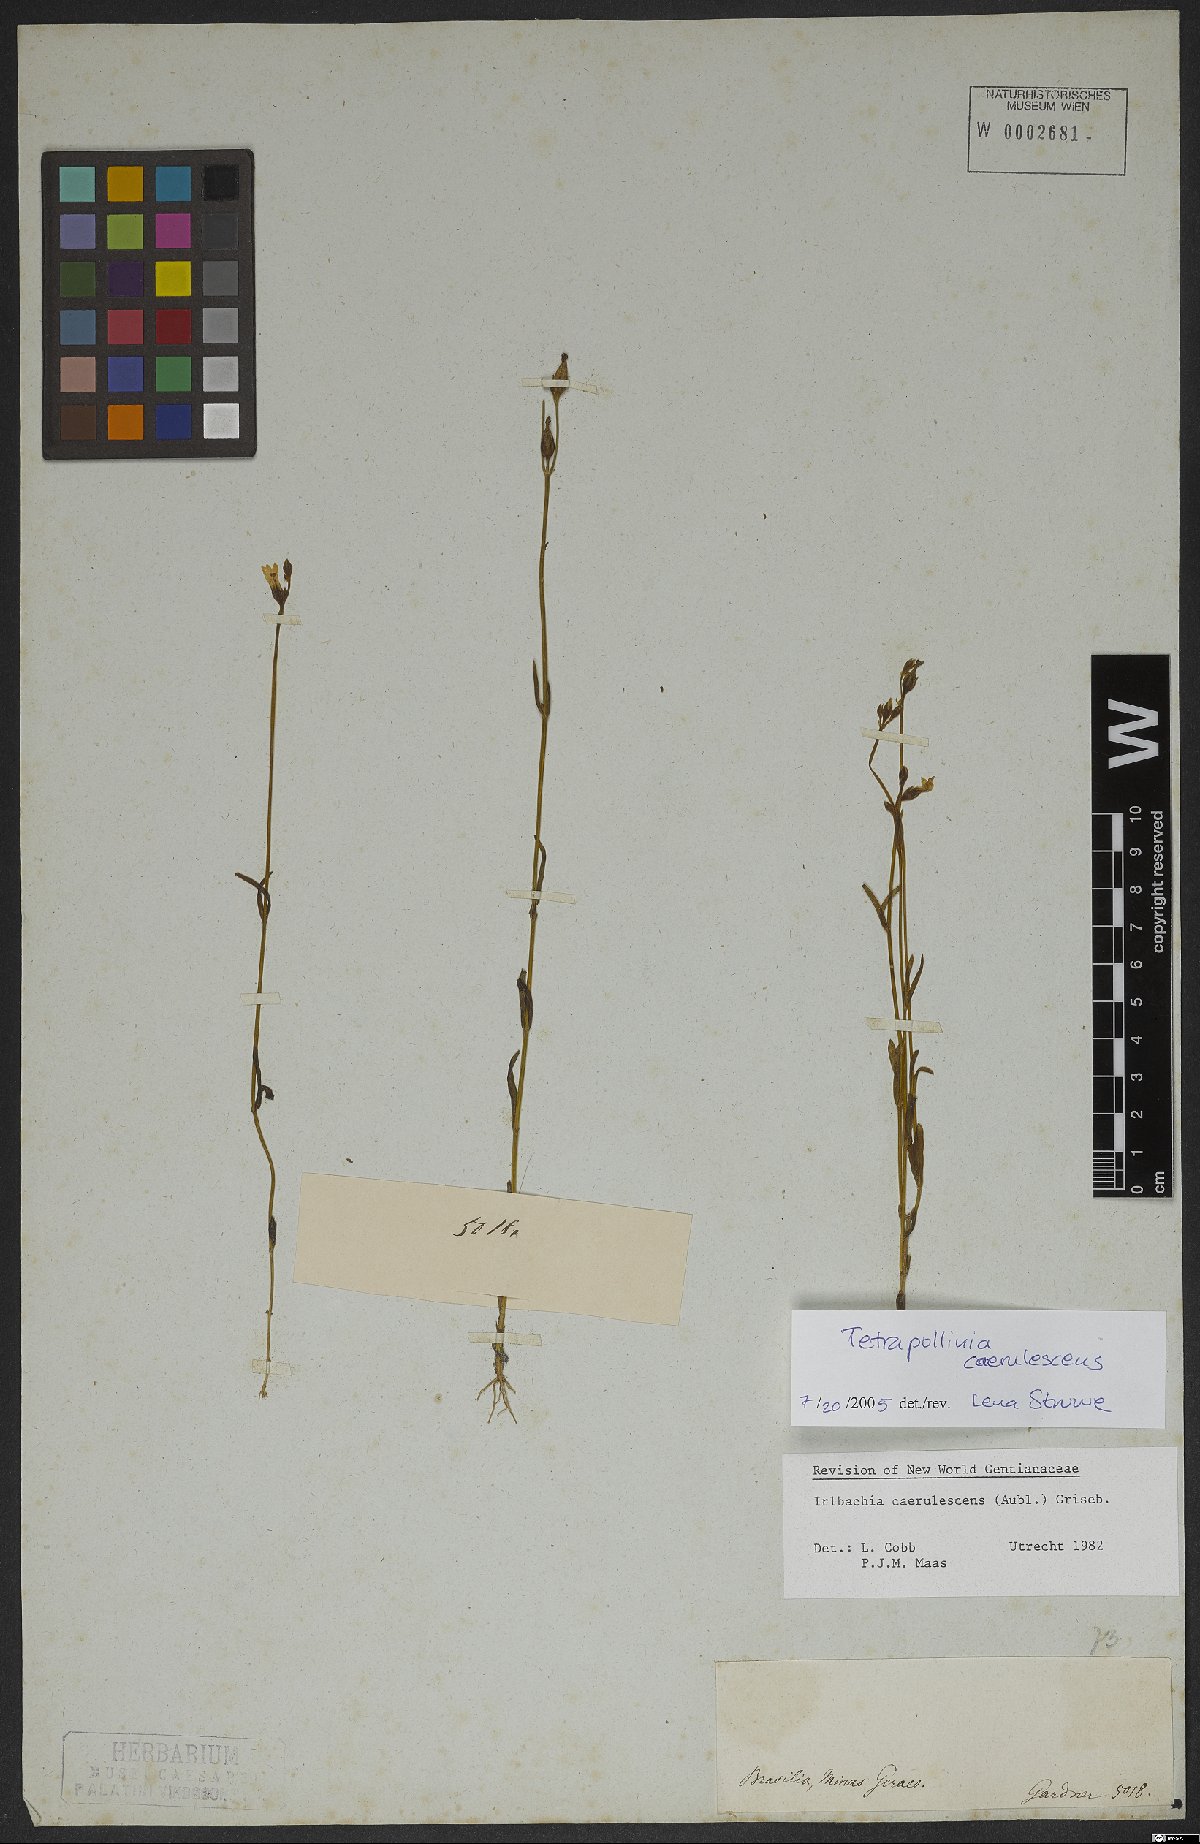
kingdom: Plantae
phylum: Tracheophyta
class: Magnoliopsida
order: Gentianales
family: Gentianaceae
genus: Tetrapollinia
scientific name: Tetrapollinia caerulescens
